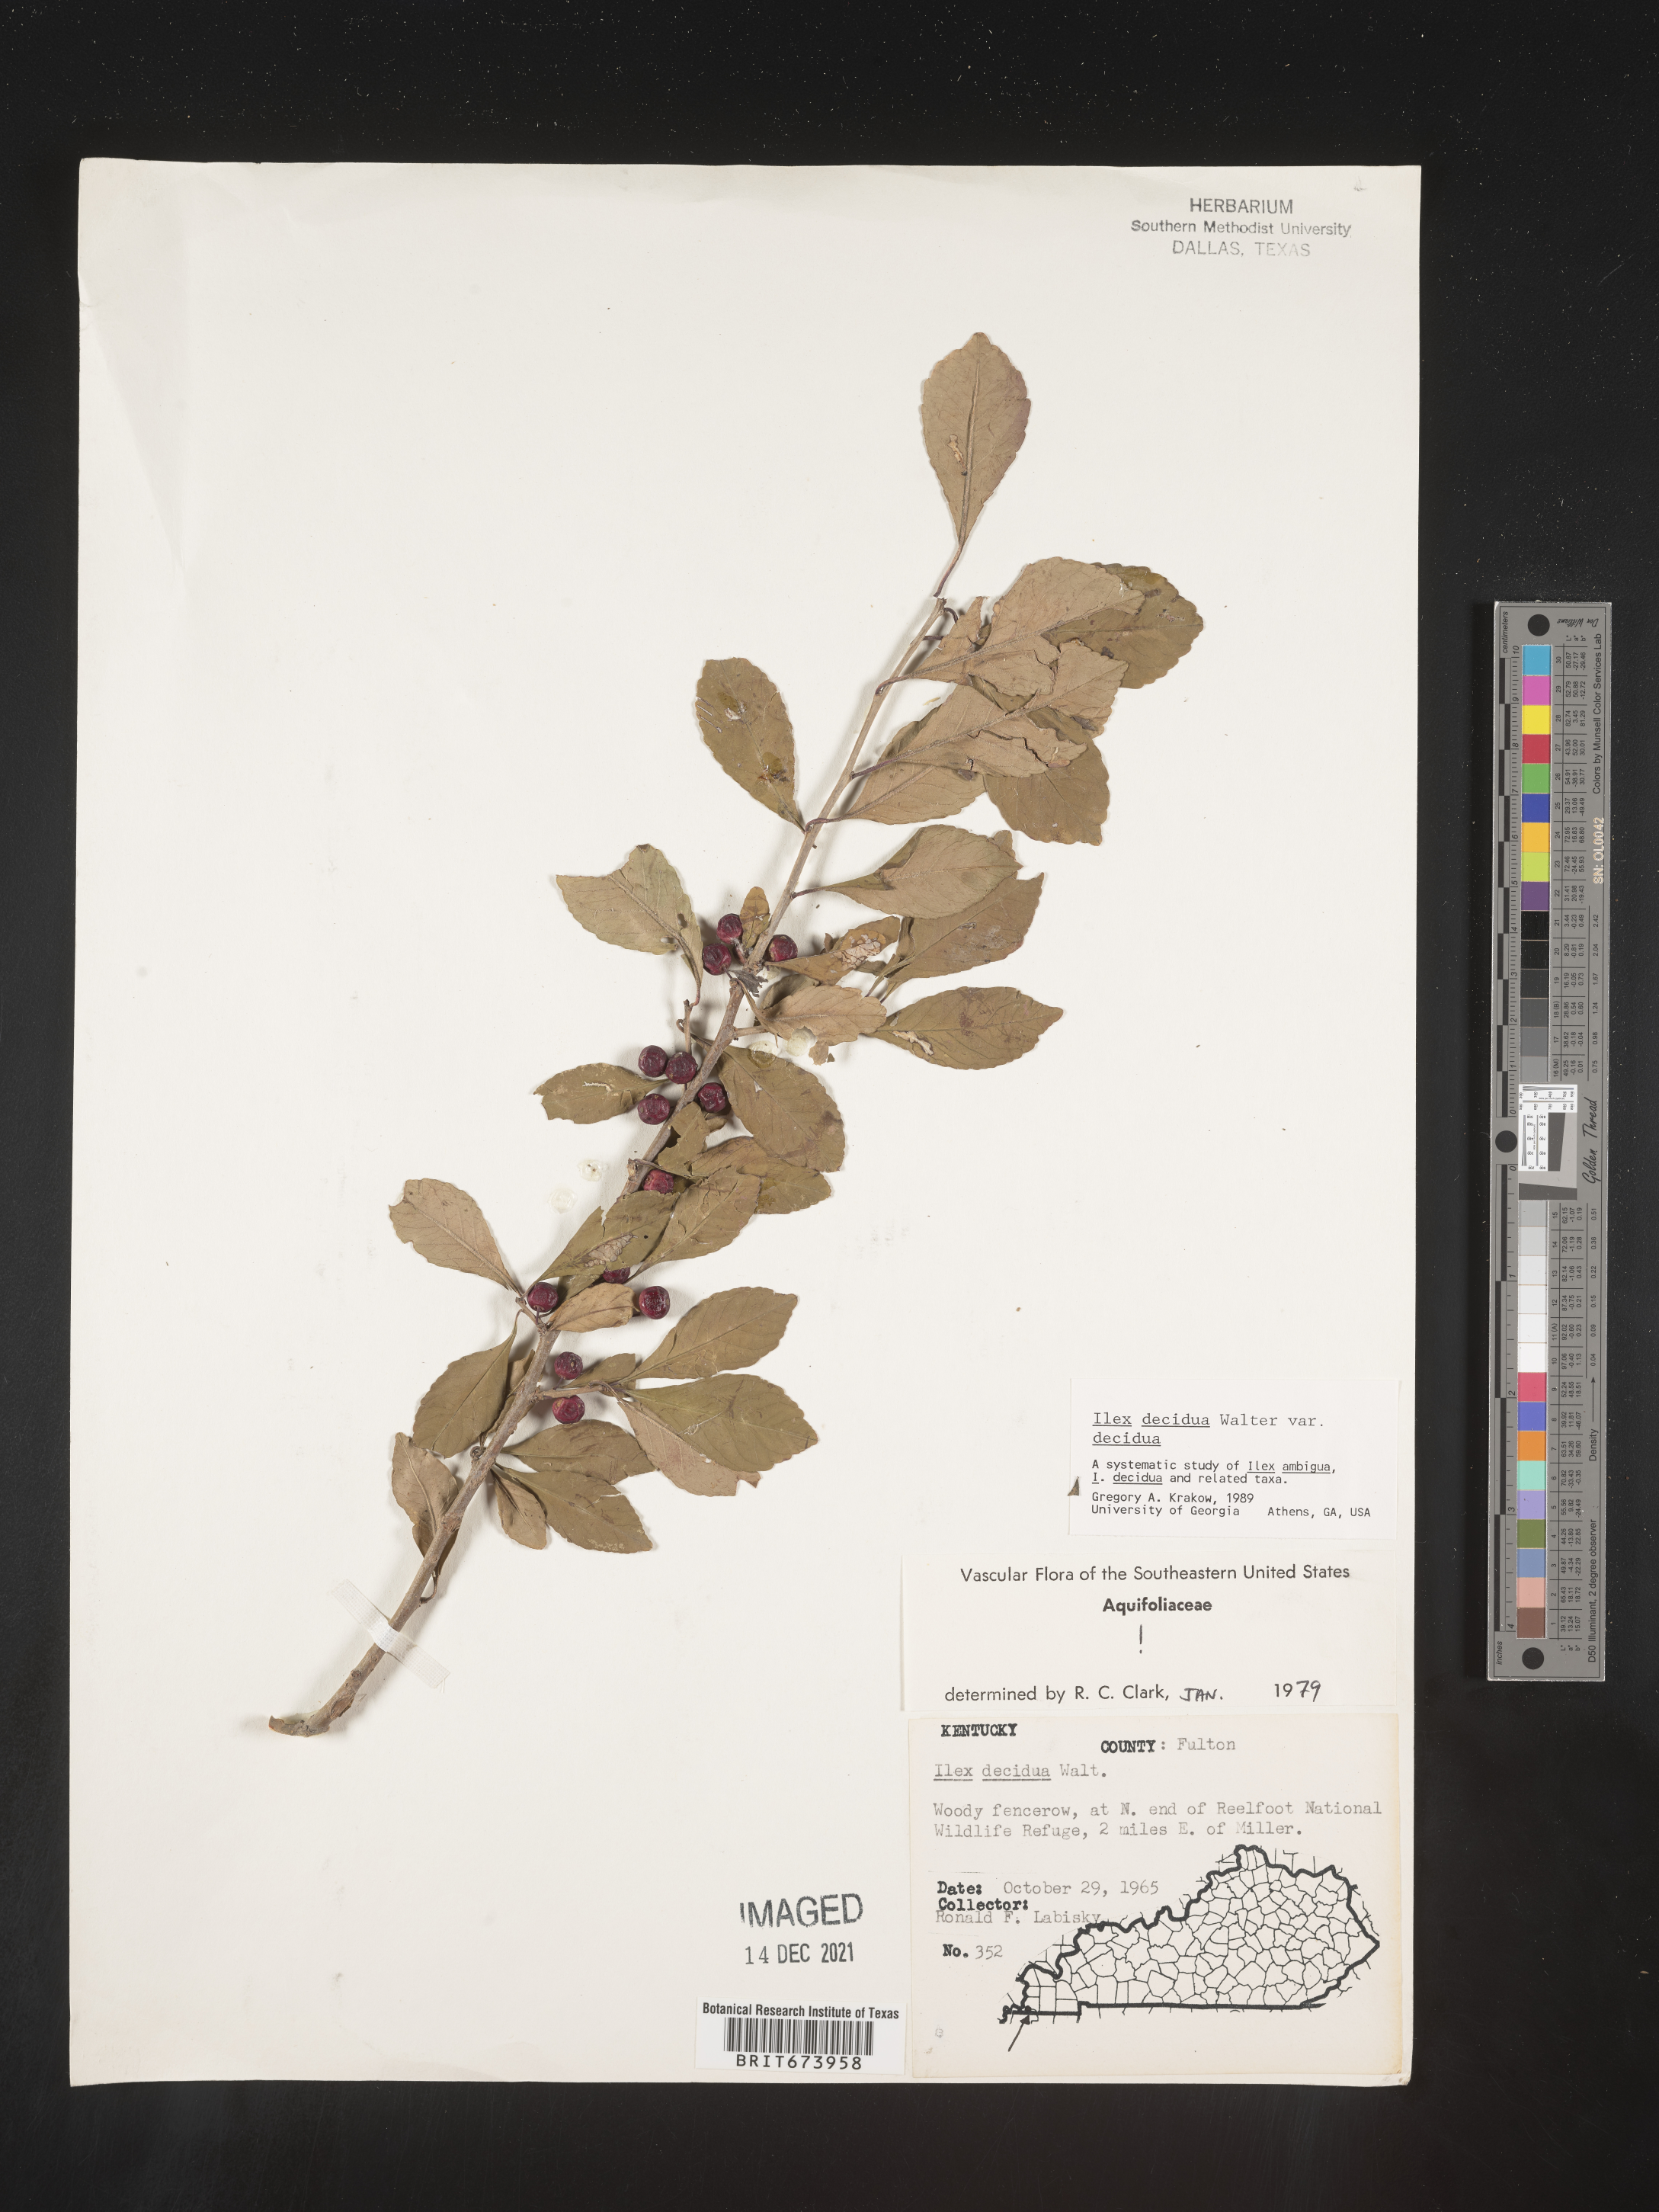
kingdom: Plantae
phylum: Tracheophyta
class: Magnoliopsida
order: Aquifoliales
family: Aquifoliaceae
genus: Ilex
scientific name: Ilex decidua
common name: Possum-haw
